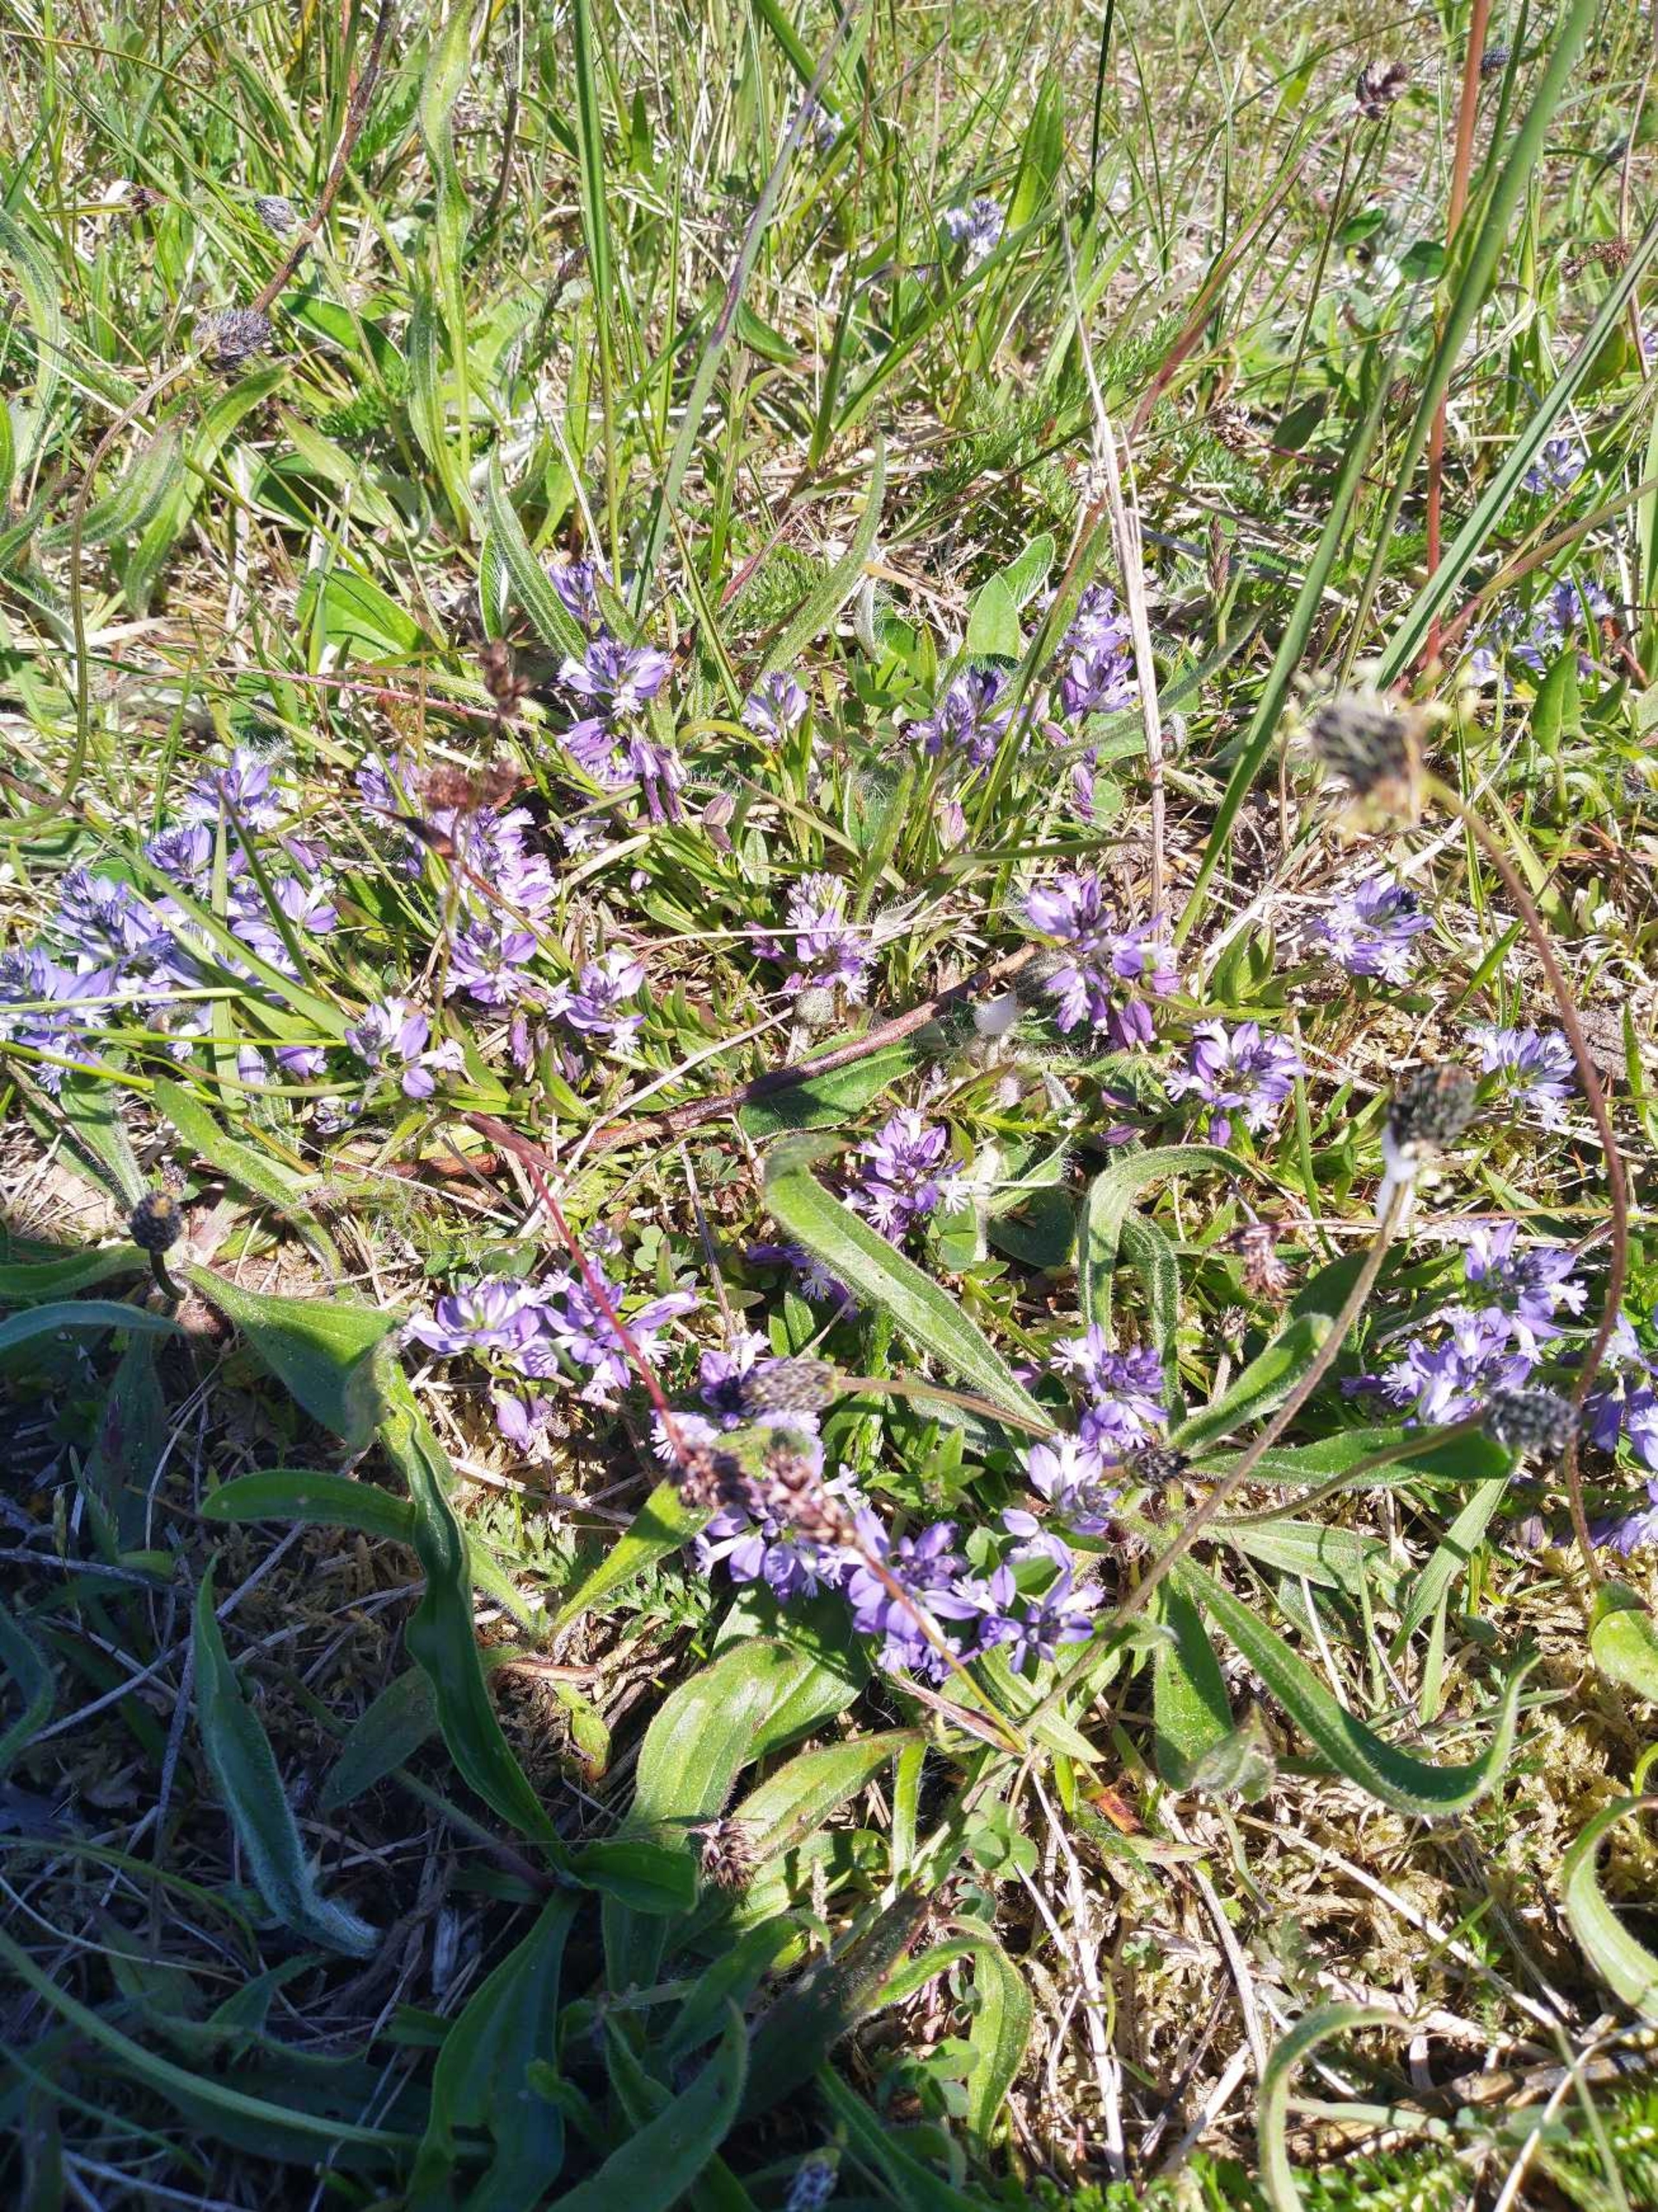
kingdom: Plantae
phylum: Tracheophyta
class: Magnoliopsida
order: Fabales
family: Polygalaceae
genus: Polygala
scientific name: Polygala vulgaris
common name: Almindelig mælkeurt
